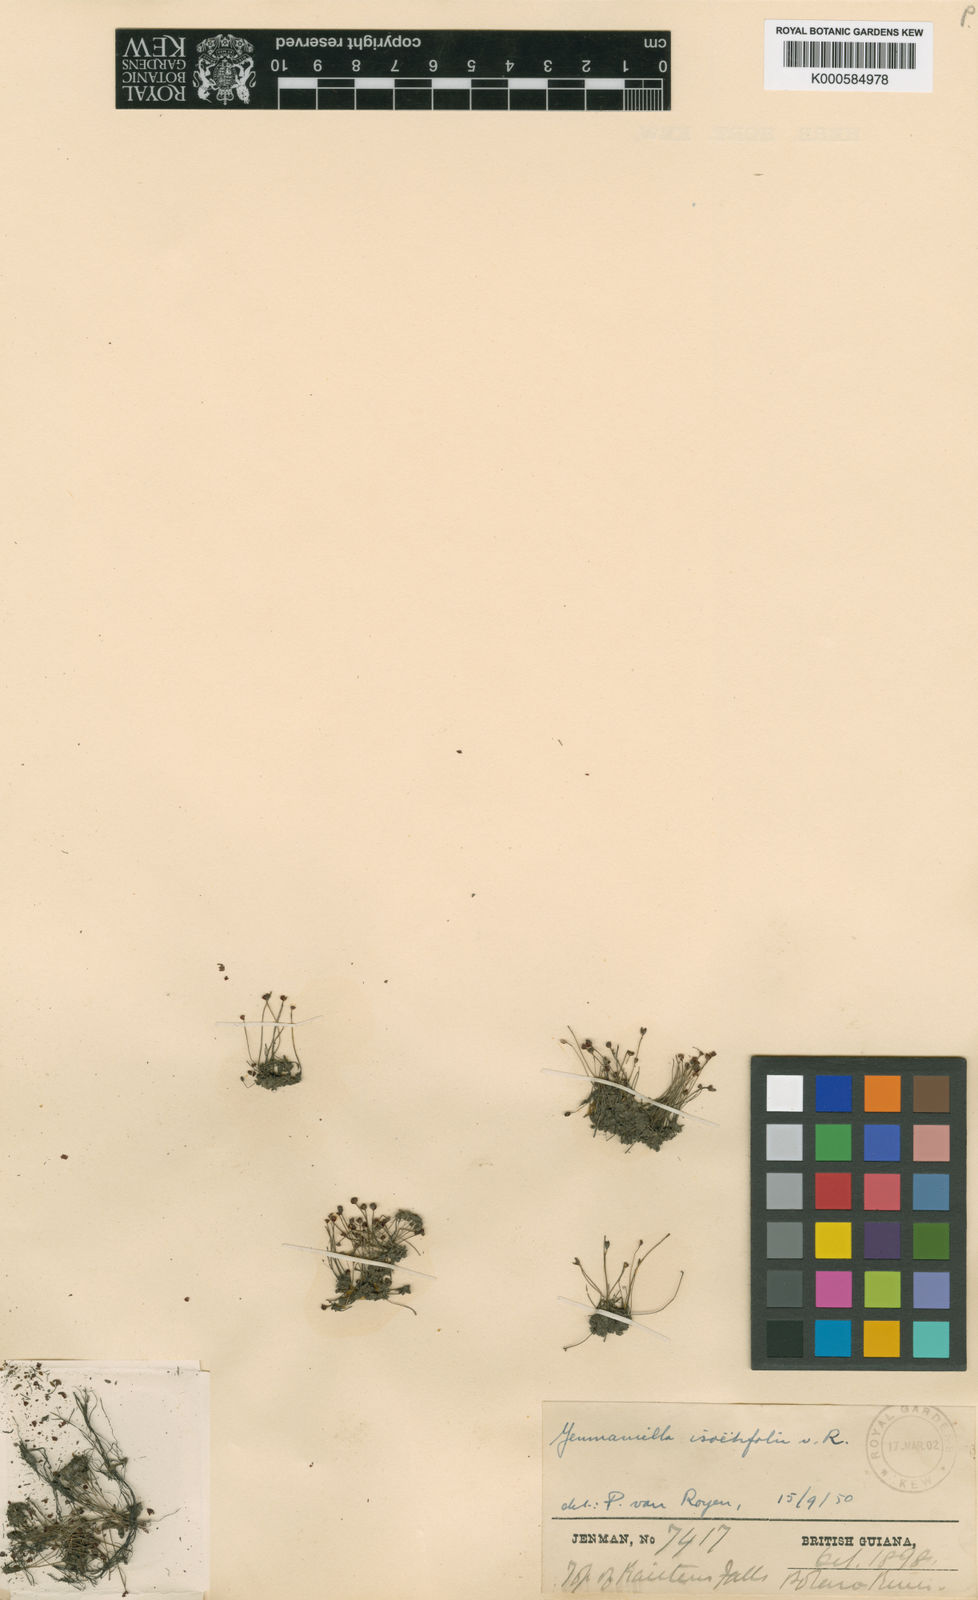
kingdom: Plantae
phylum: Tracheophyta
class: Magnoliopsida
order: Malpighiales
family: Podostemaceae
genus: Lophogyne
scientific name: Lophogyne isoetifolia
